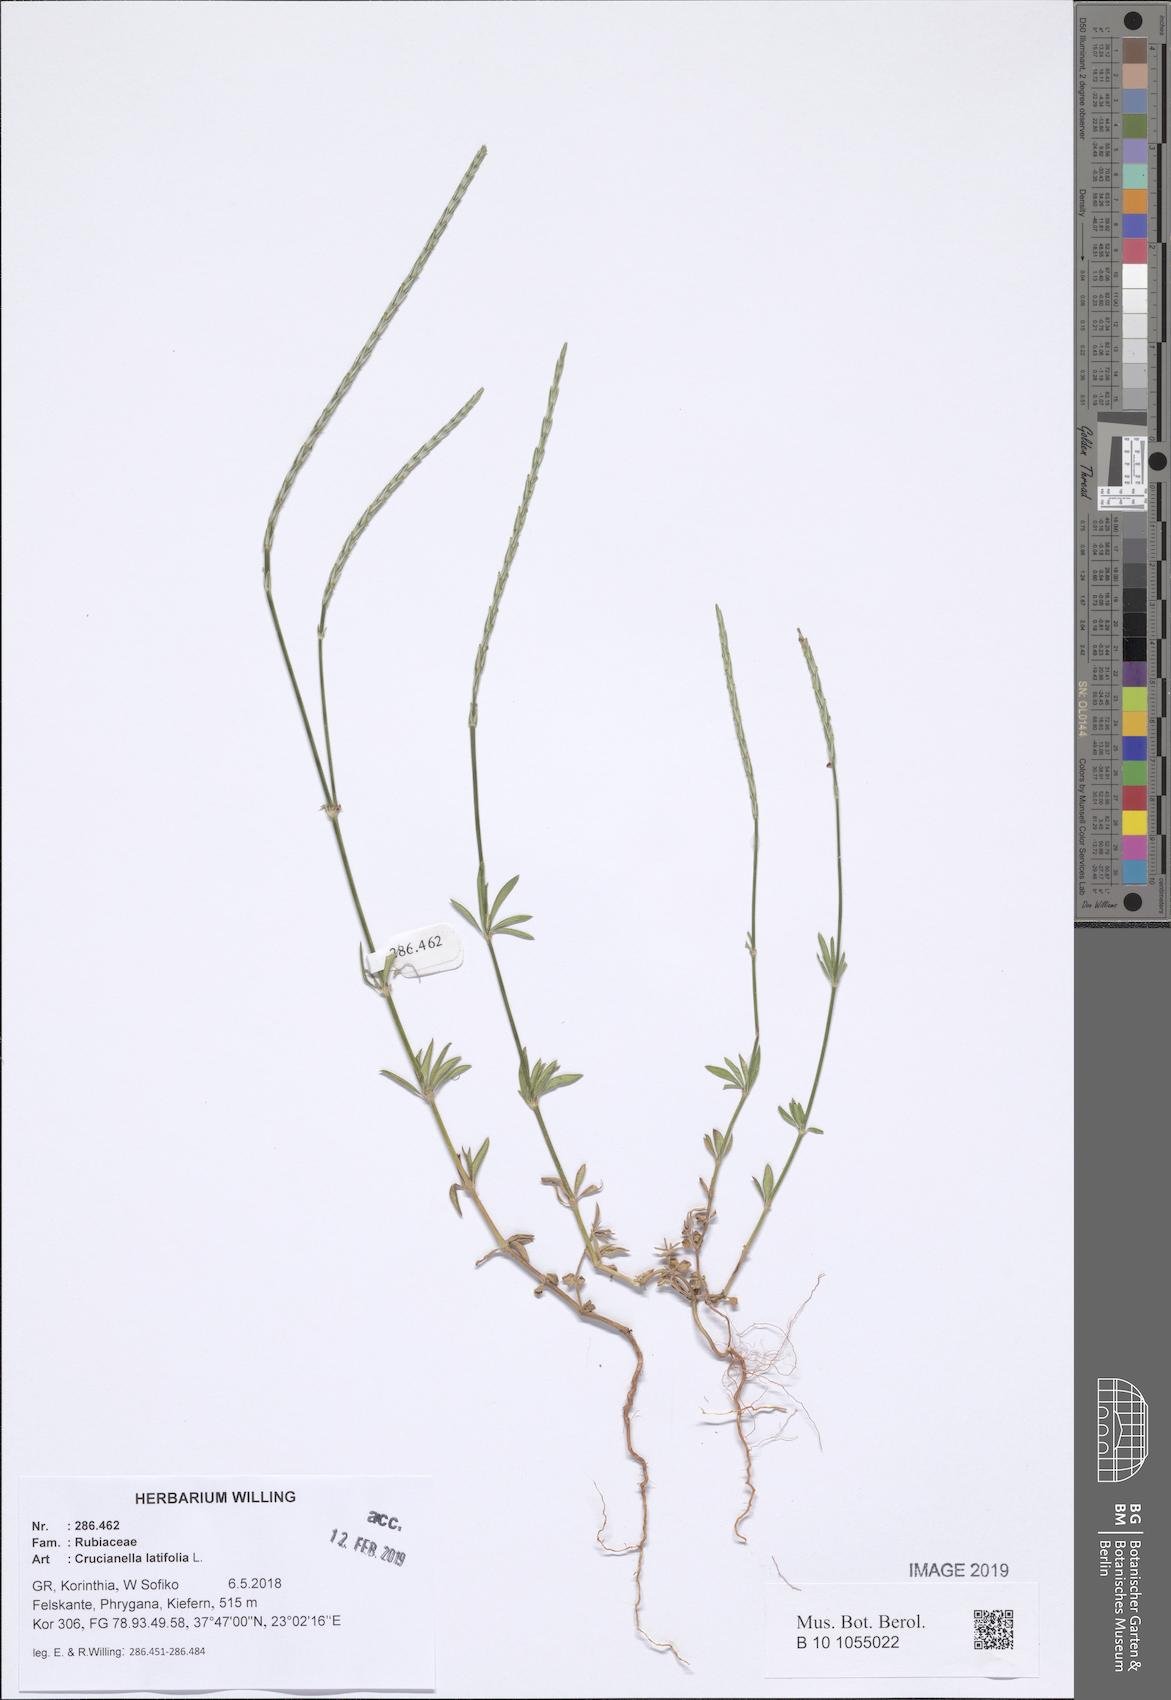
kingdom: Plantae
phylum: Tracheophyta
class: Magnoliopsida
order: Gentianales
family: Rubiaceae
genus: Crucianella
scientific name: Crucianella latifolia
